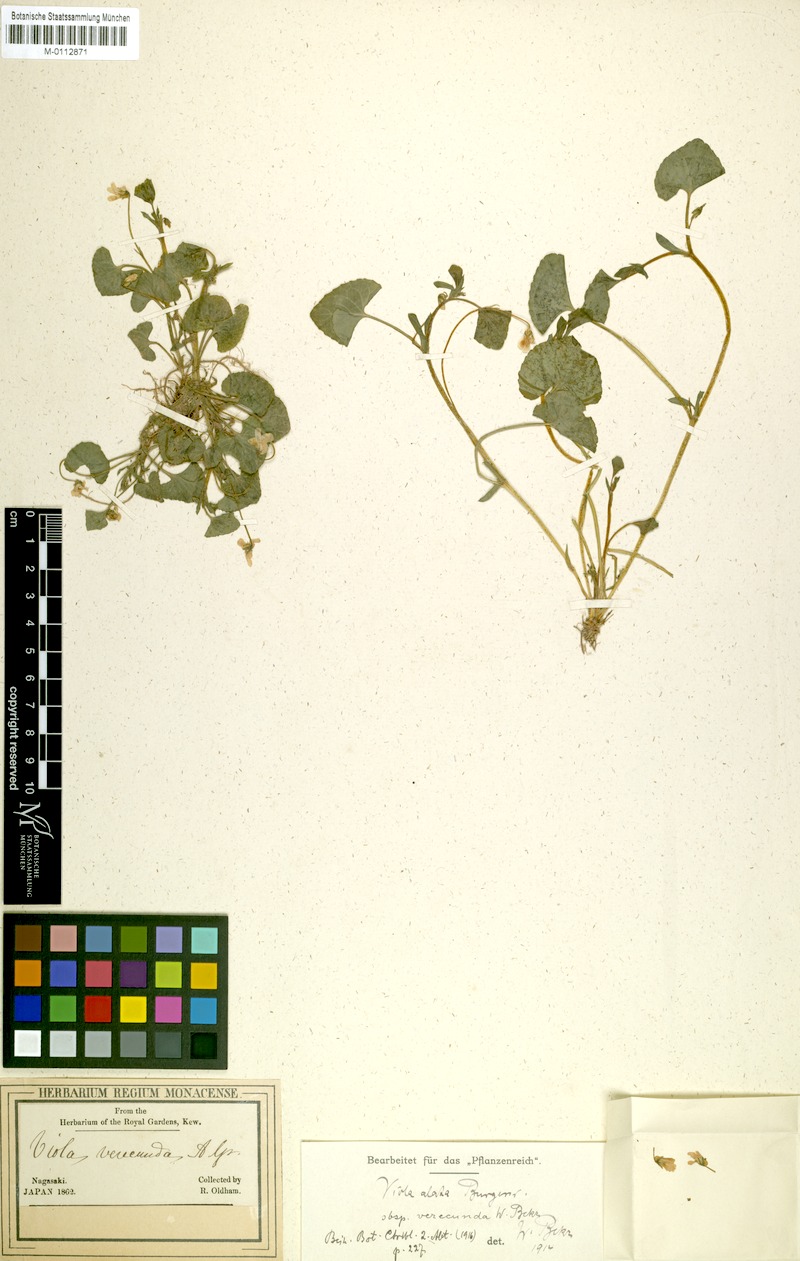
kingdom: Plantae
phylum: Tracheophyta
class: Magnoliopsida
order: Malpighiales
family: Violaceae
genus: Viola
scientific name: Viola hamiltoniana
